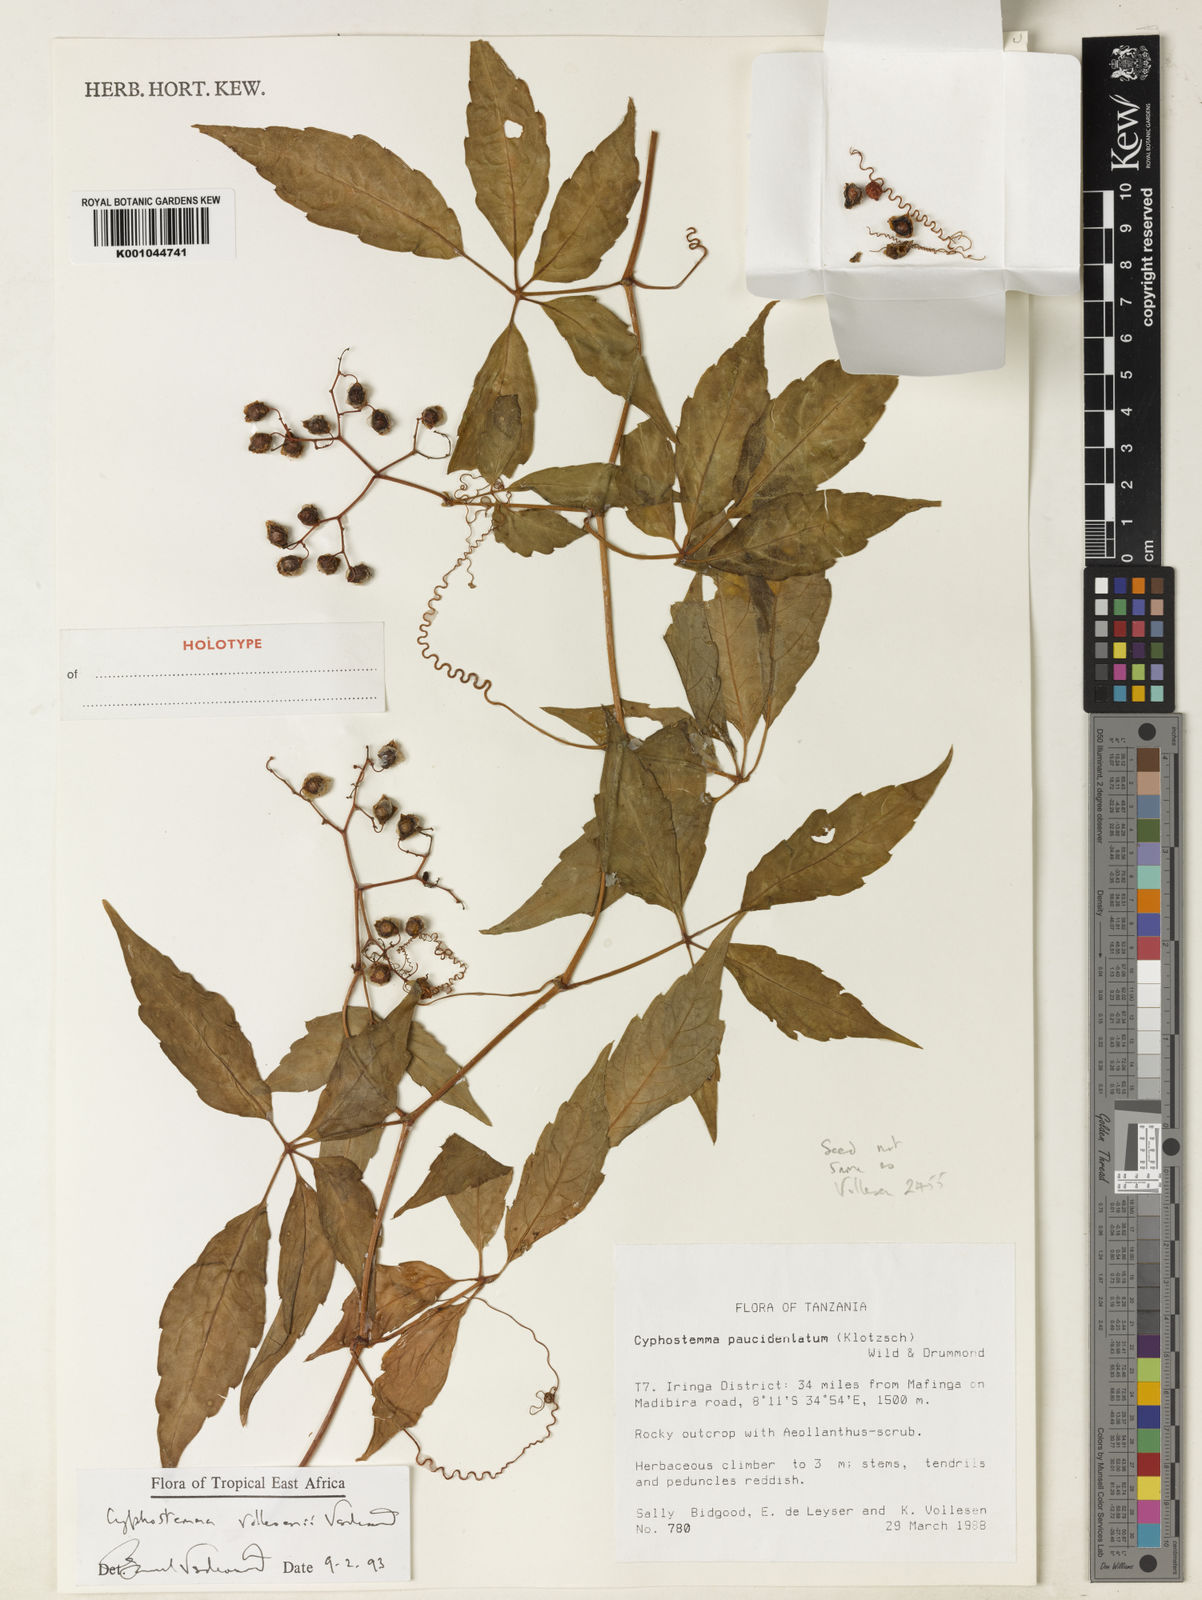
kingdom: Plantae
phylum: Tracheophyta
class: Magnoliopsida
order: Vitales
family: Vitaceae
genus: Cyphostemma
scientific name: Cyphostemma vollesenii
